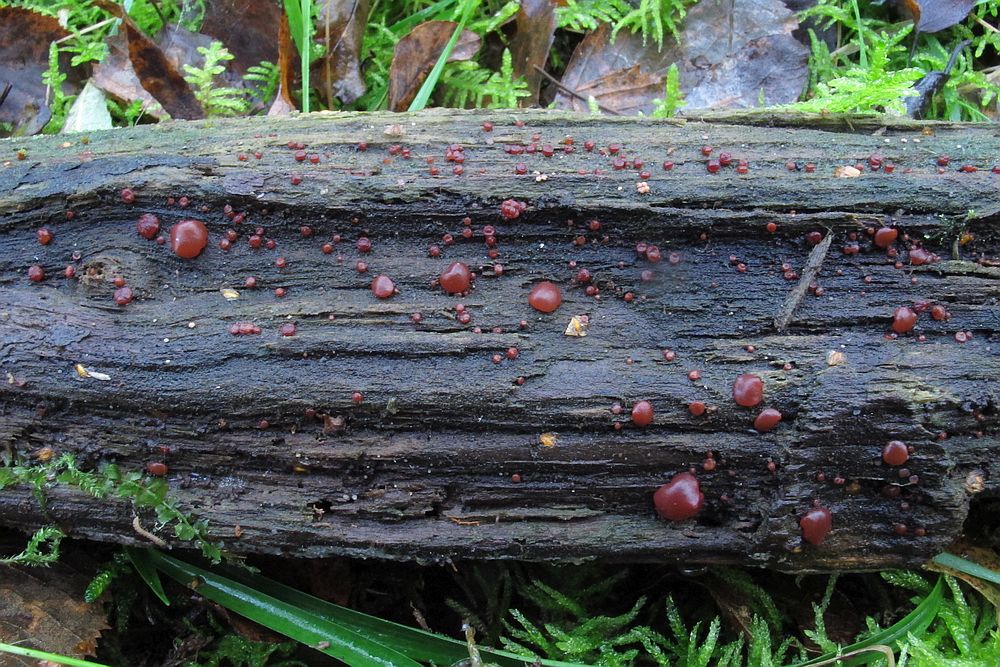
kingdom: Fungi
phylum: Ascomycota
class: Leotiomycetes
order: Helotiales
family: Gelatinodiscaceae
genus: Ascocoryne
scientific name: Ascocoryne inflata
